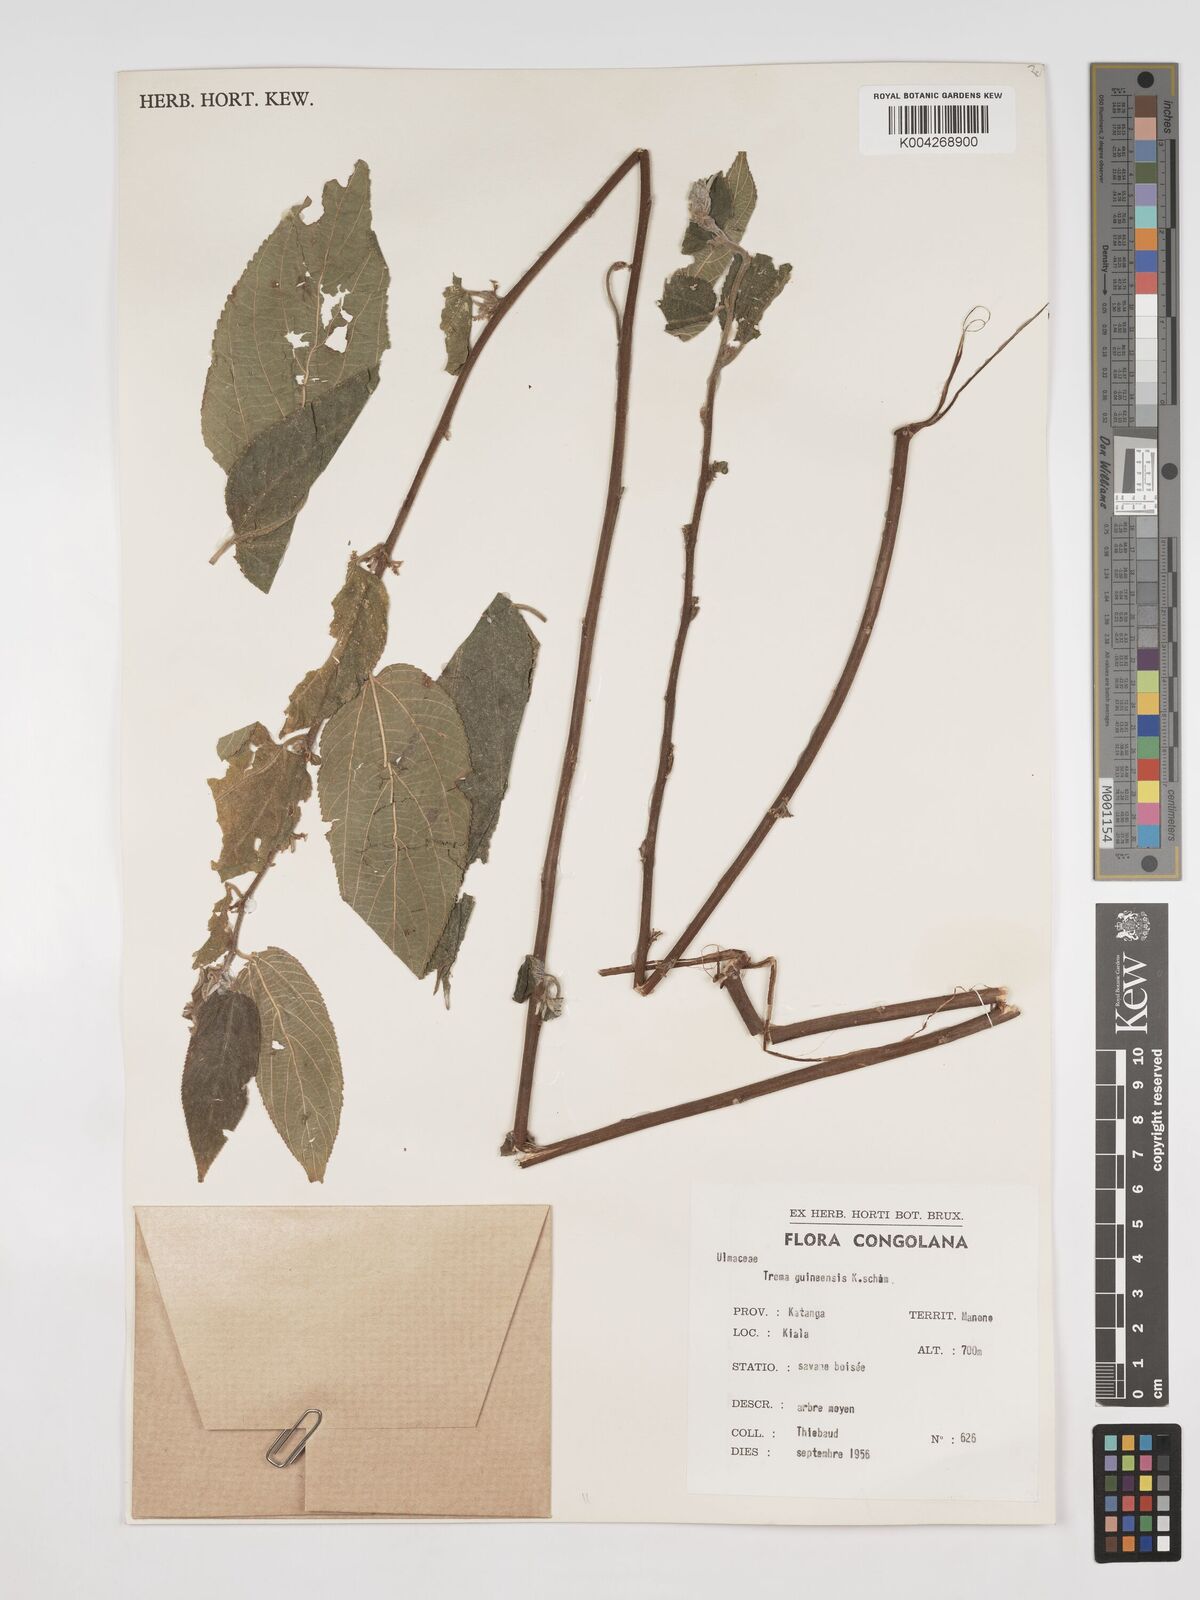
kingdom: Plantae
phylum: Tracheophyta
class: Magnoliopsida
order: Rosales
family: Cannabaceae
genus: Trema
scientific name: Trema orientale
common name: Indian charcoal tree
